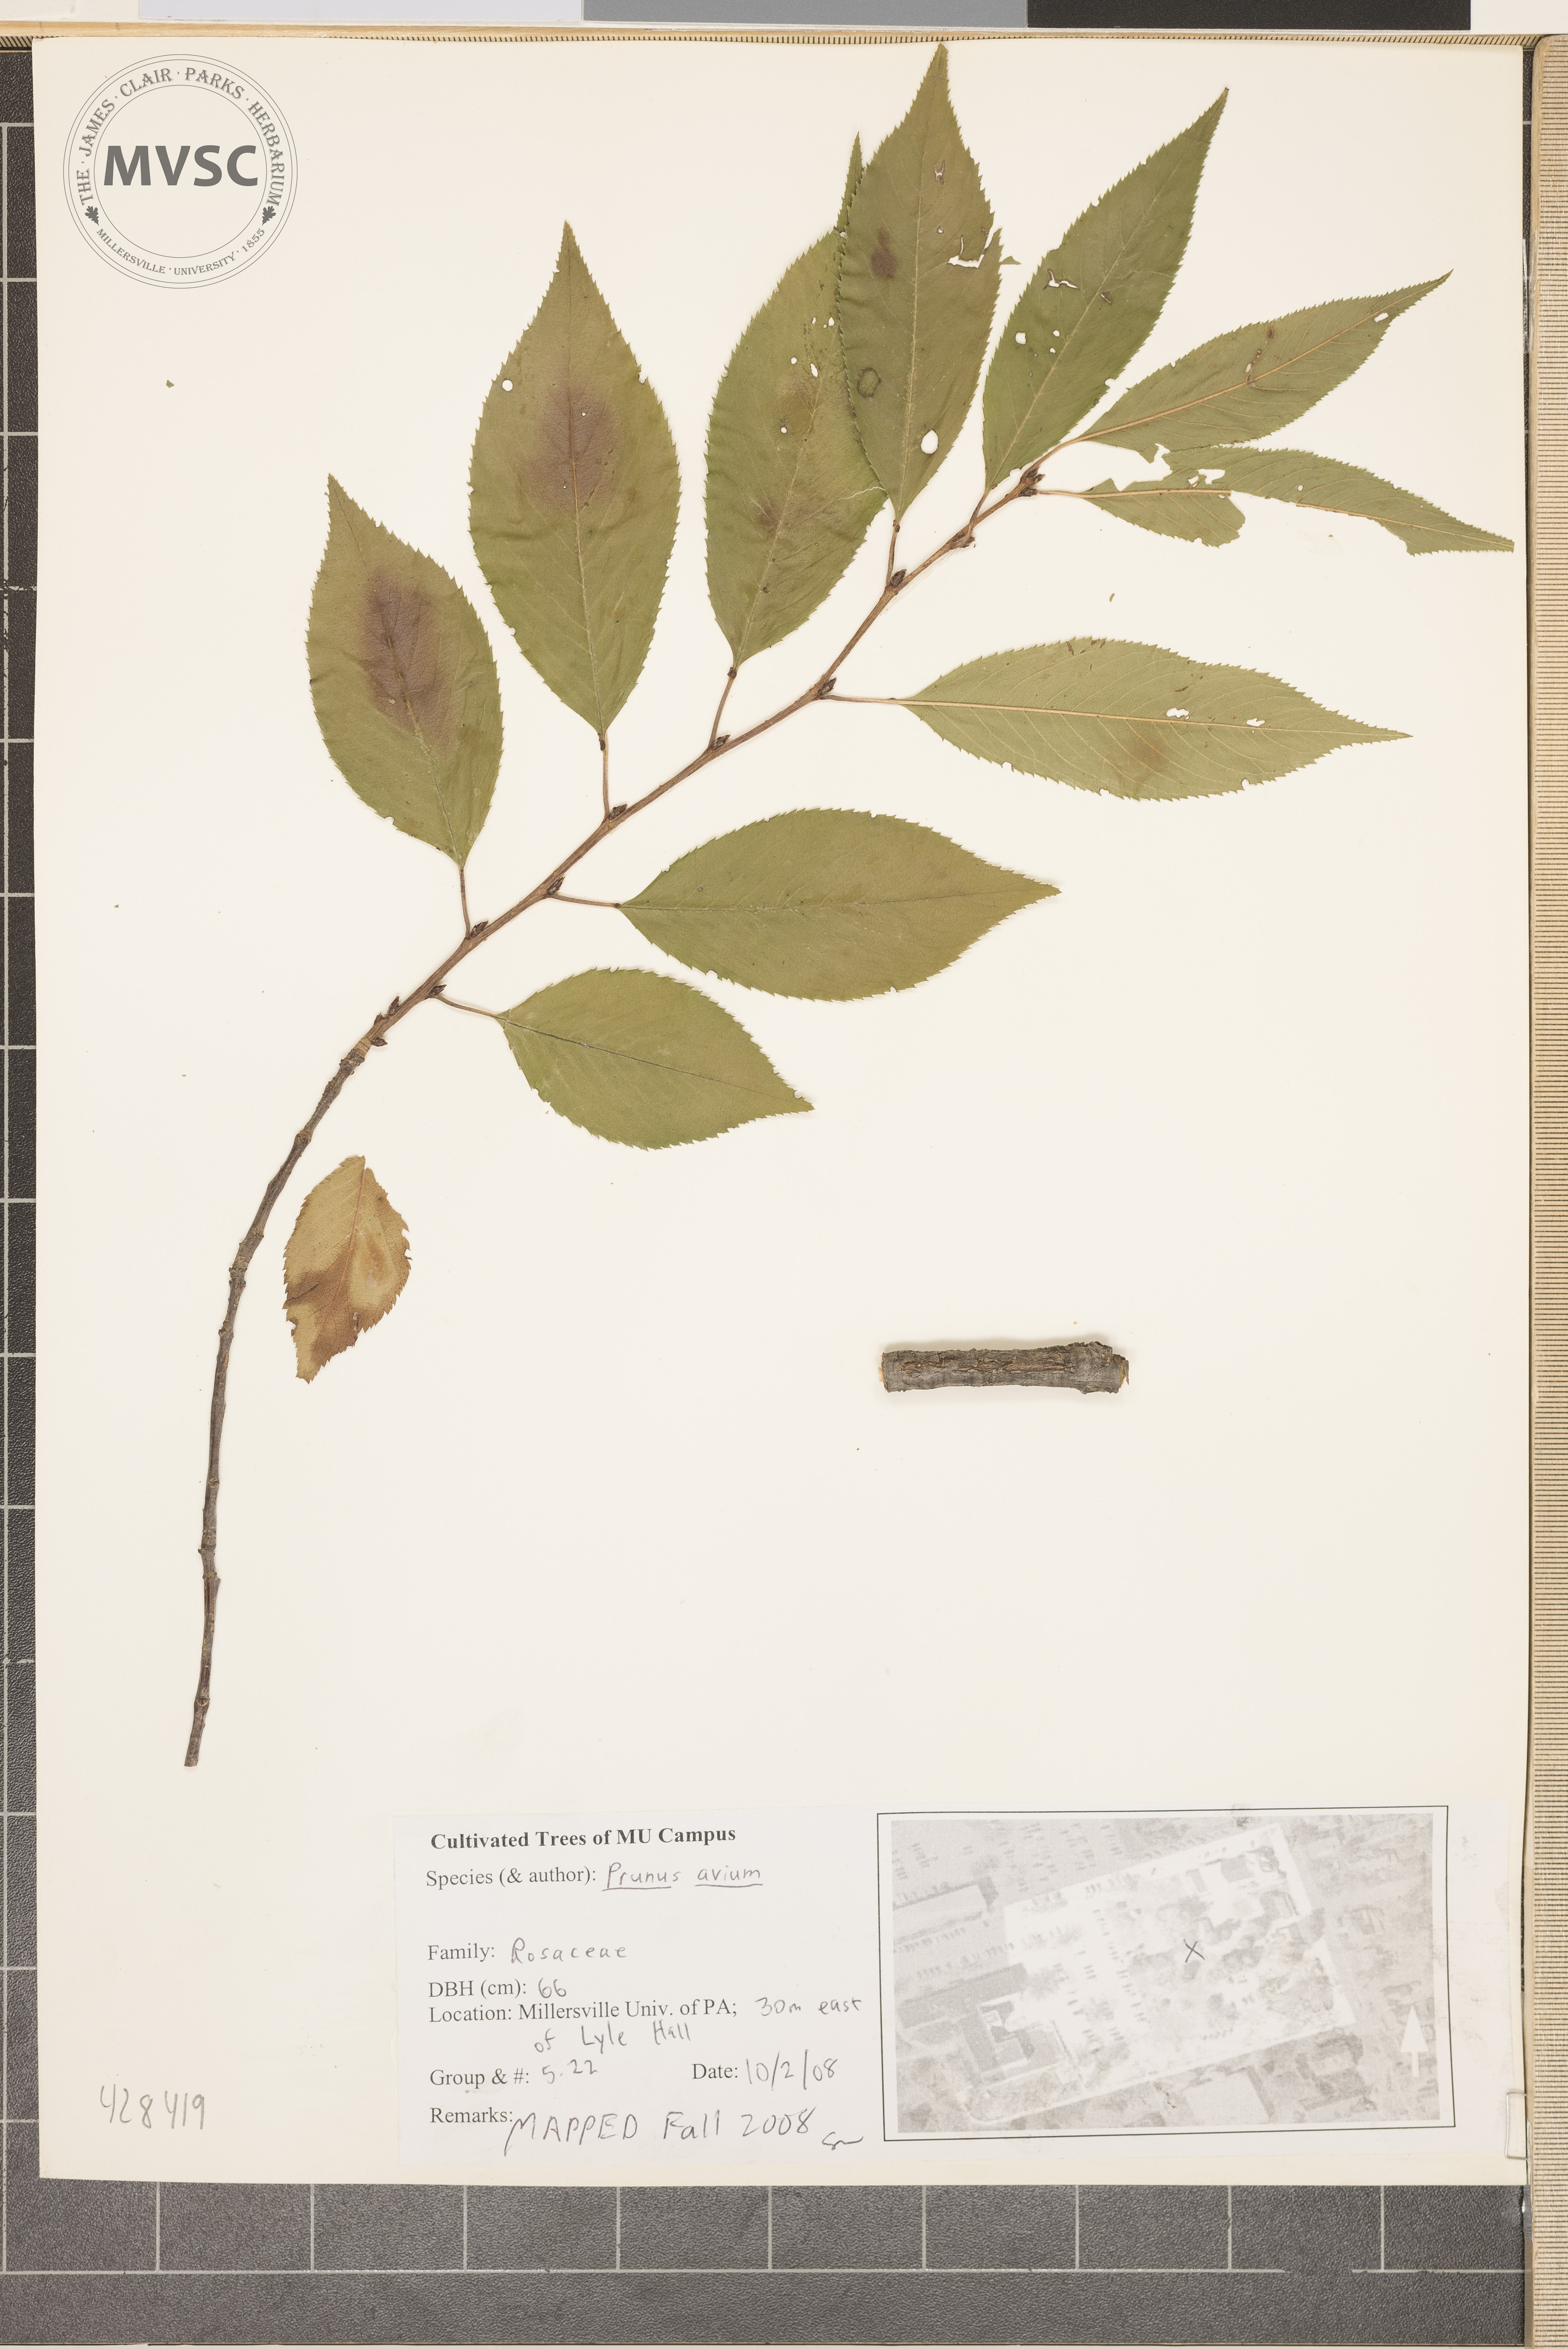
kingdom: Plantae
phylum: Tracheophyta
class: Magnoliopsida
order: Rosales
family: Rosaceae
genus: Prunus
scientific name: Prunus avium
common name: Sweet Cherry
